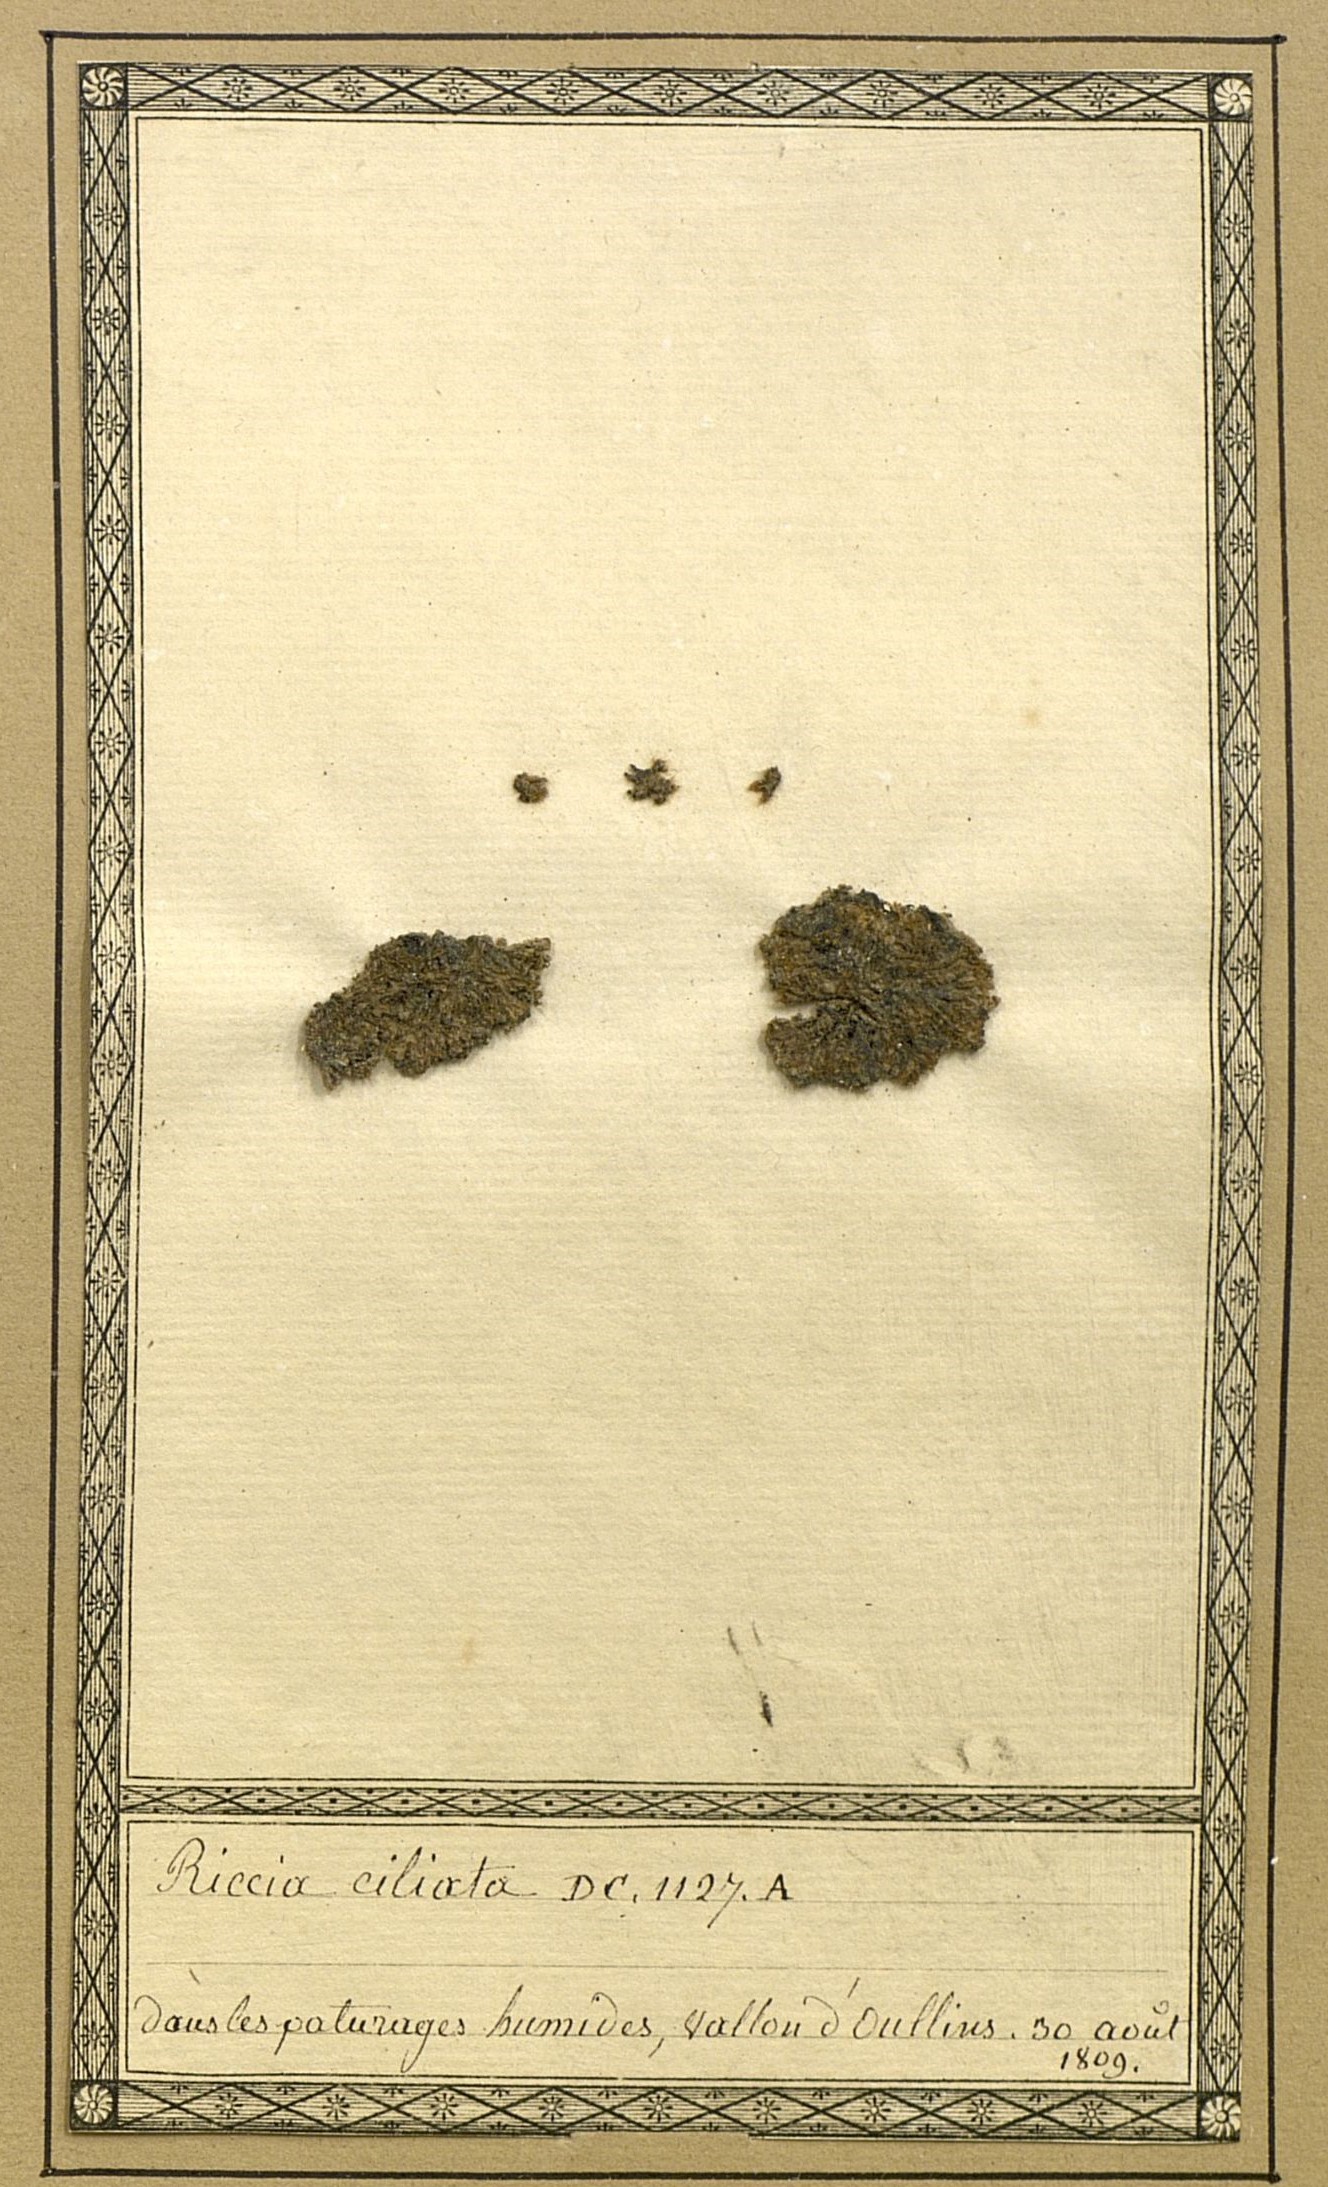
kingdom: Plantae
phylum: Marchantiophyta
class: Marchantiopsida
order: Marchantiales
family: Ricciaceae
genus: Riccia
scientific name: Riccia ciliata
